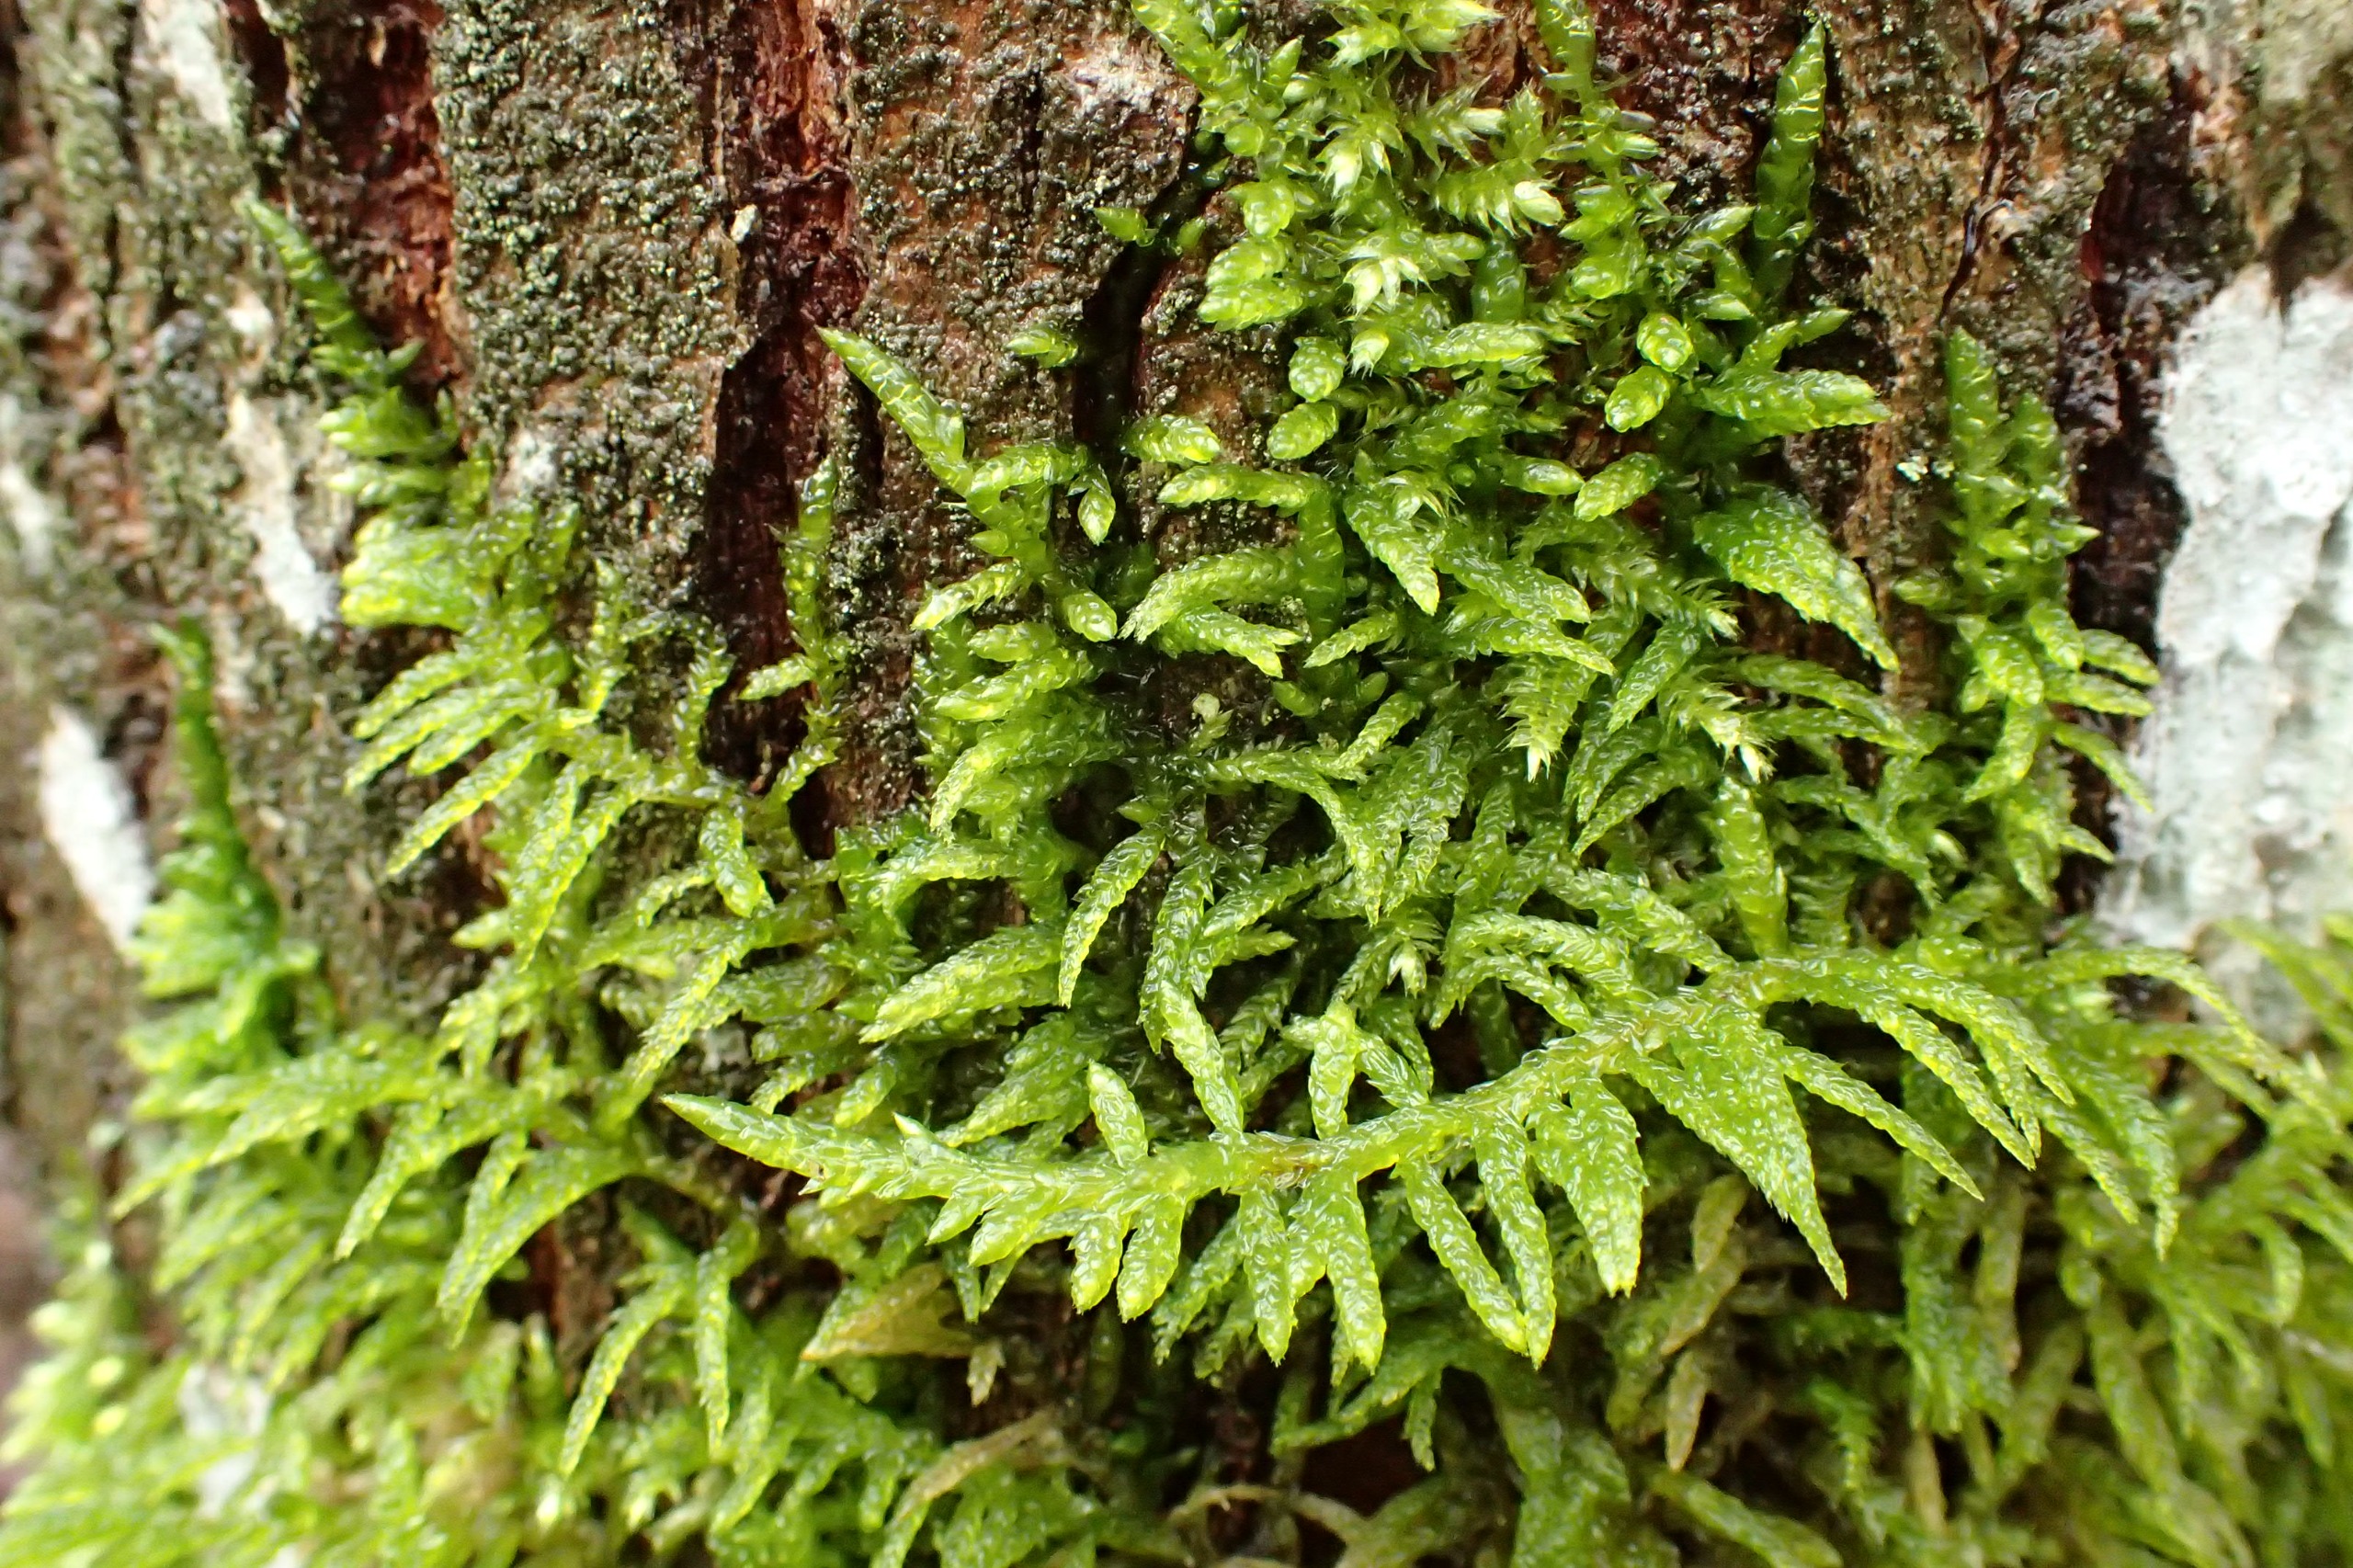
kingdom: Plantae
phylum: Bryophyta
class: Bryopsida
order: Hypnales
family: Brachytheciaceae
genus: Pseudoscleropodium
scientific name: Pseudoscleropodium purum
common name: Hulbladet fedtmos
